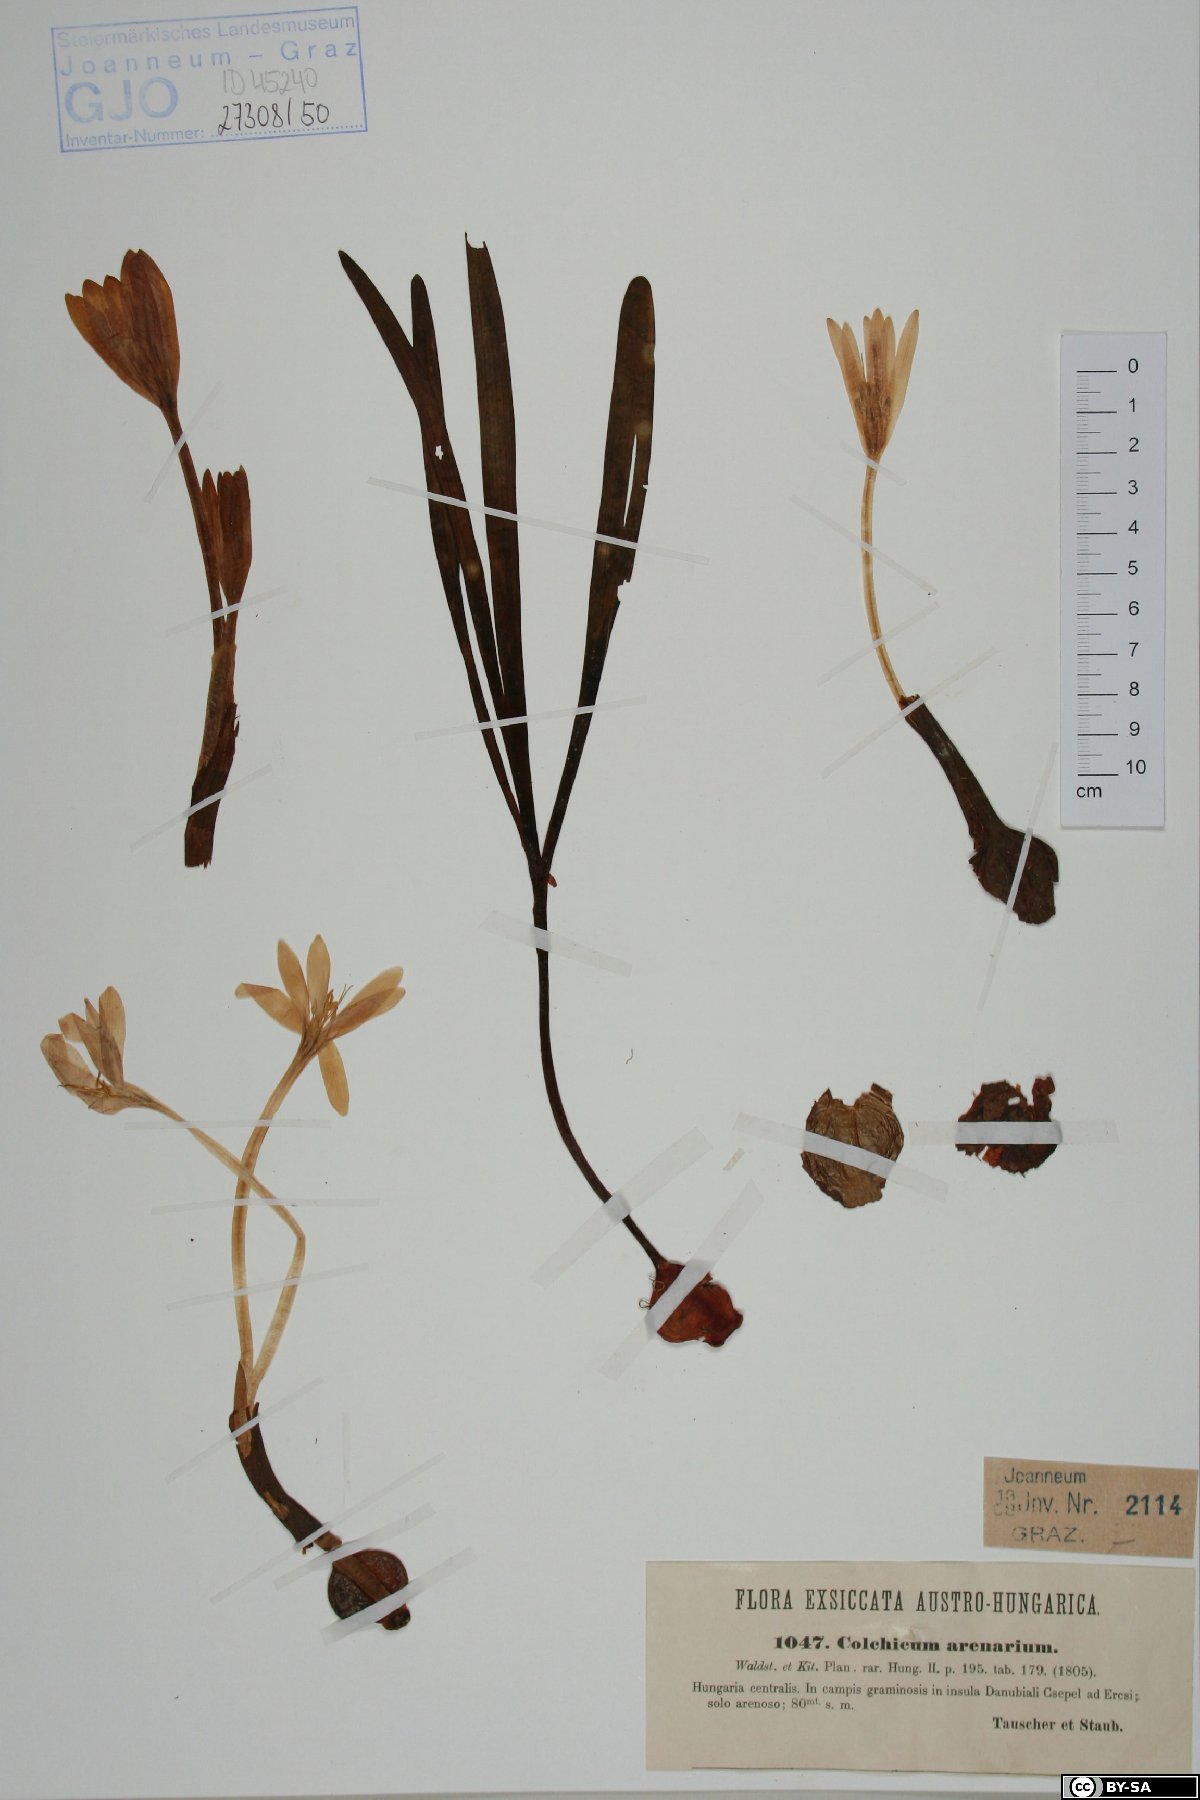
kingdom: Plantae
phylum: Tracheophyta
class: Liliopsida
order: Liliales
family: Colchicaceae
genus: Colchicum
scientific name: Colchicum arenarium
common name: Sand saffron
